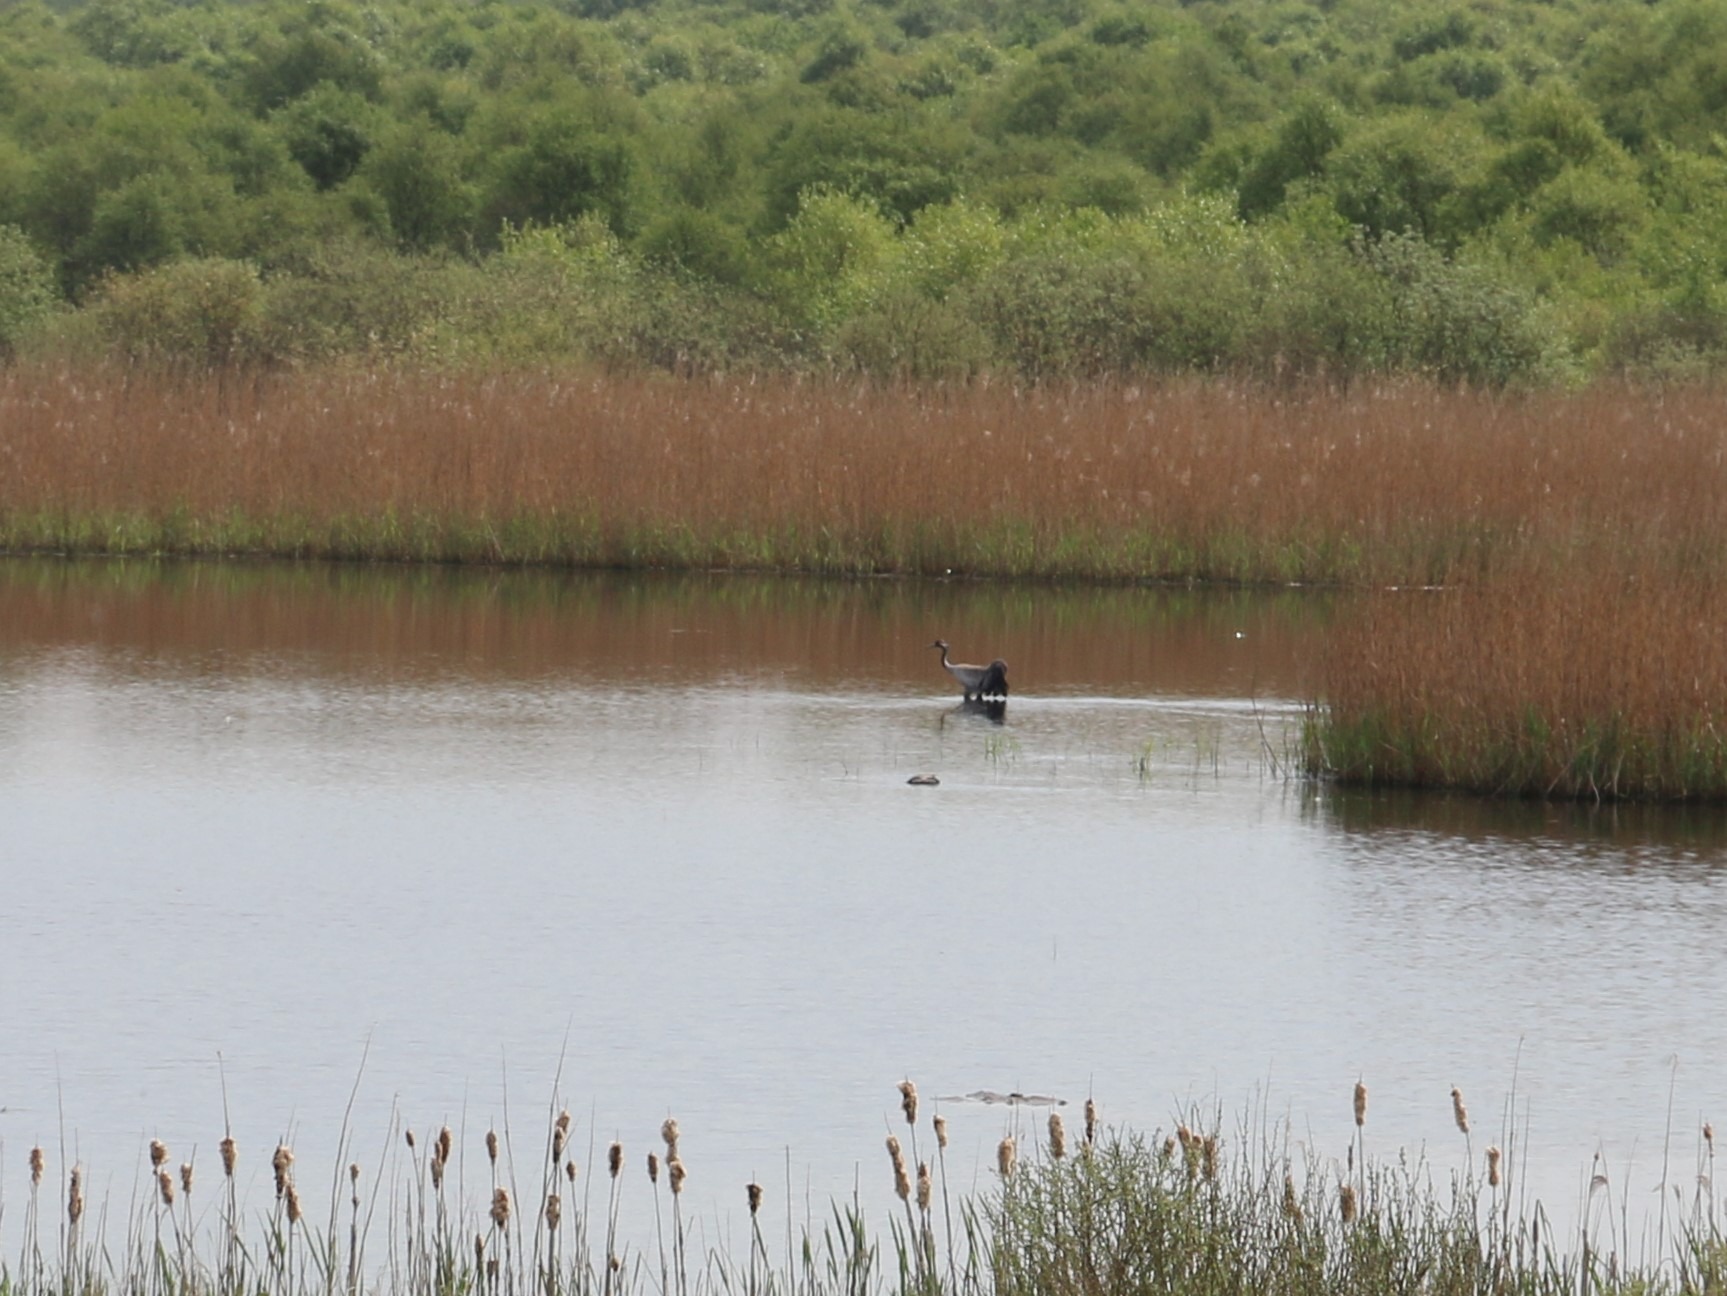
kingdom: Animalia
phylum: Chordata
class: Aves
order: Gruiformes
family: Gruidae
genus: Grus
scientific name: Grus grus
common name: Trane
